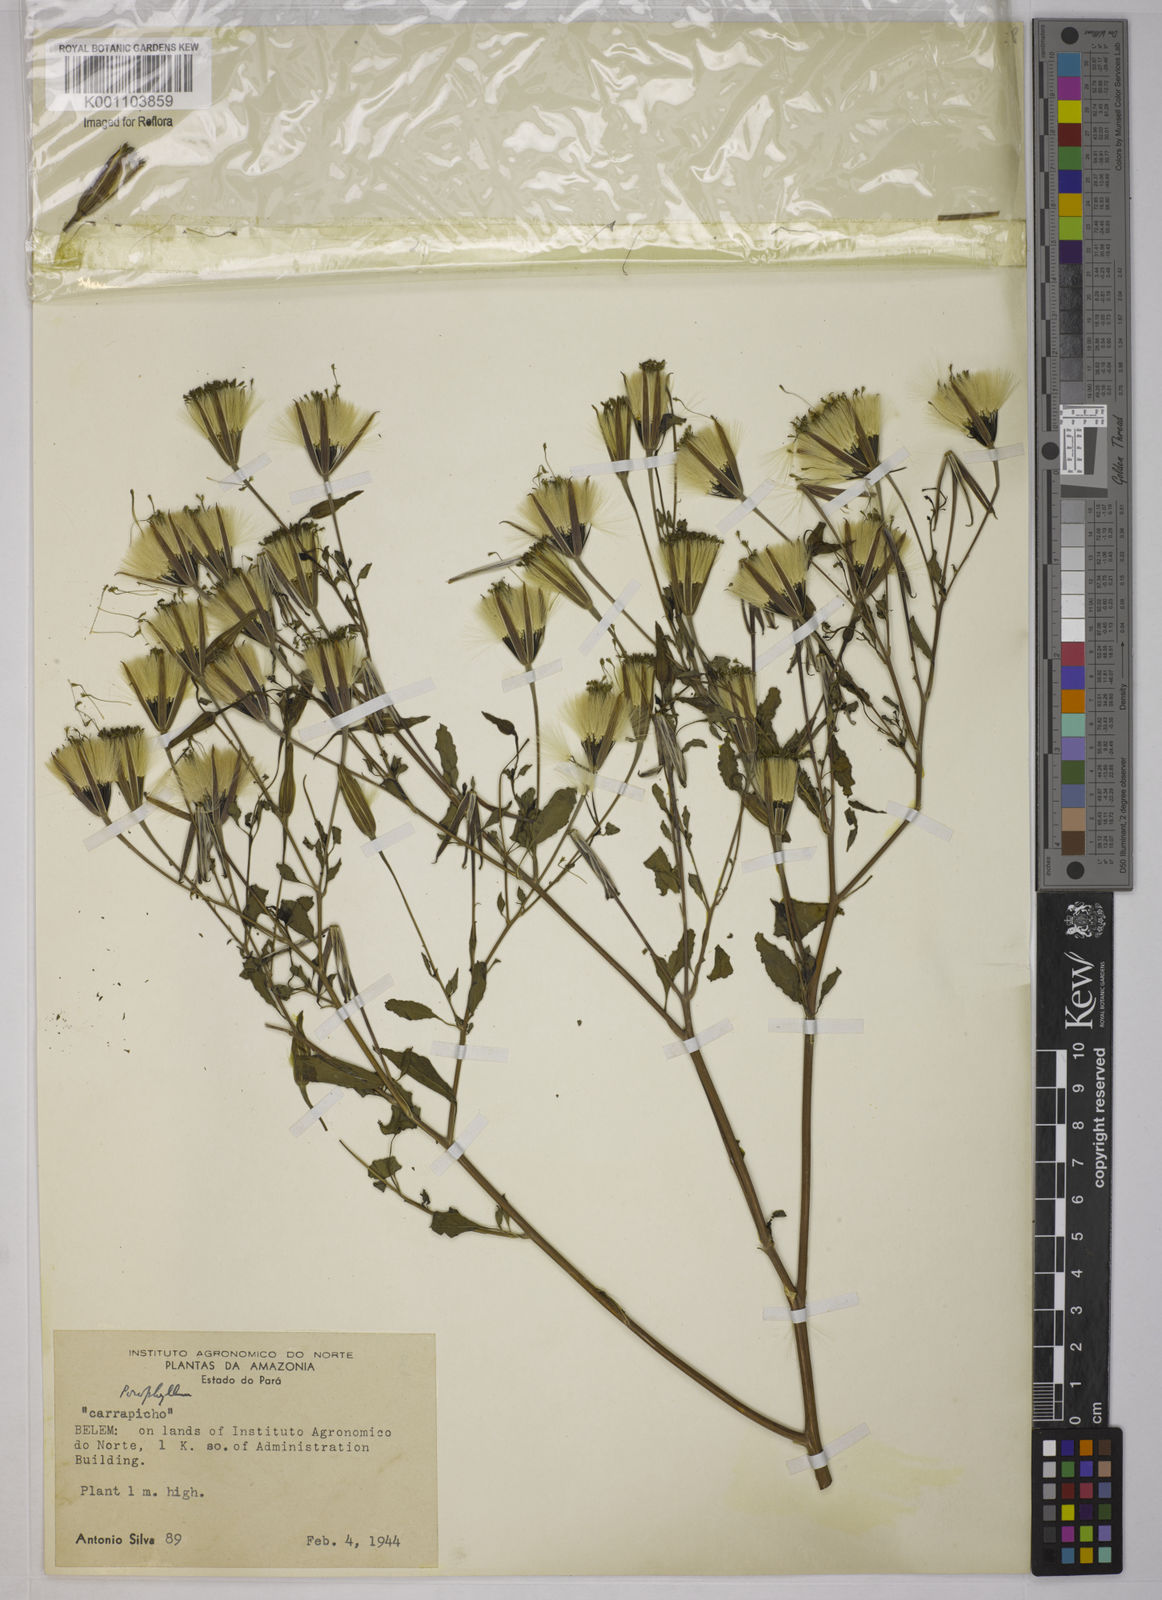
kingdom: Plantae
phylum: Tracheophyta
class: Magnoliopsida
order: Asterales
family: Asteraceae
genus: Porophyllum
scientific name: Porophyllum ruderale
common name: Yerba porosa
